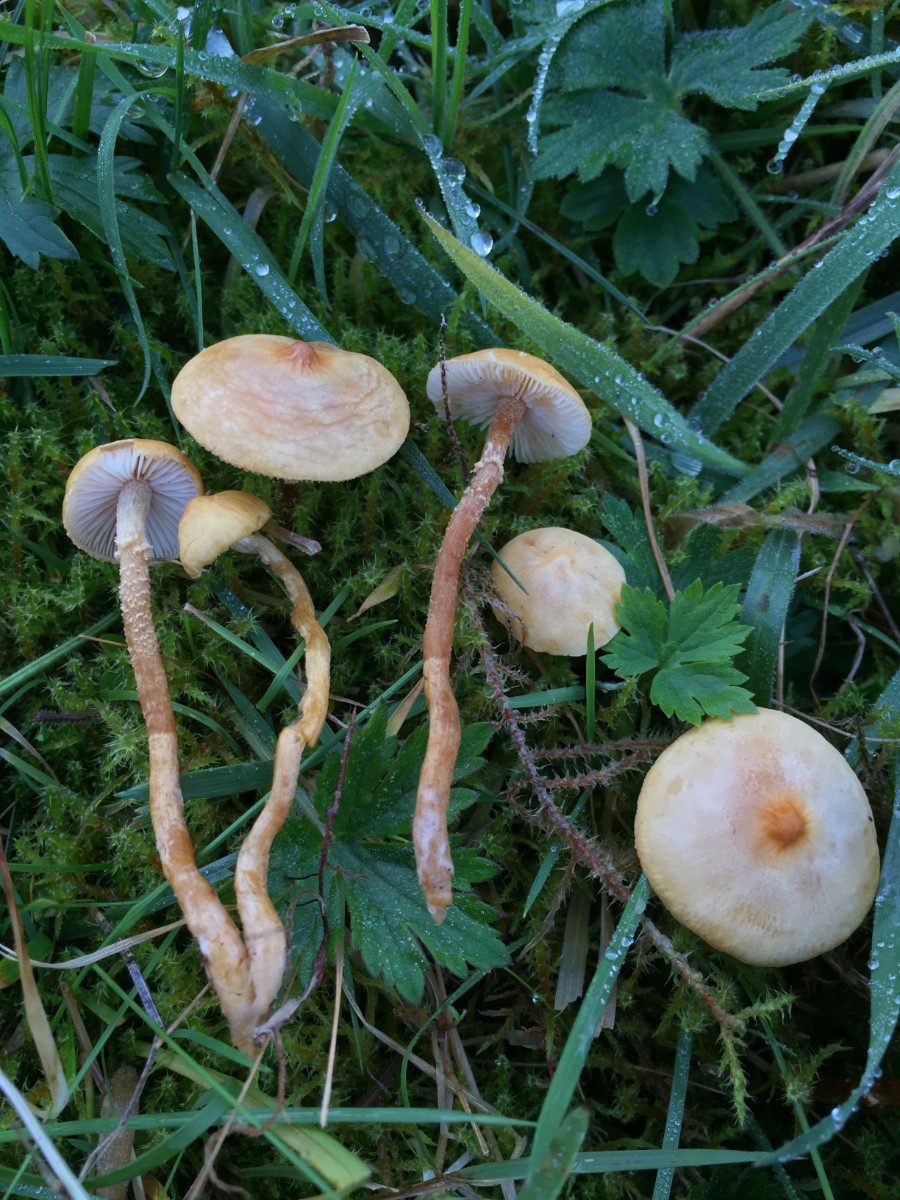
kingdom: Fungi
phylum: Basidiomycota
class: Agaricomycetes
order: Agaricales
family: Tricholomataceae
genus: Cystoderma
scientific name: Cystoderma amianthinum
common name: okkergul grynhat
